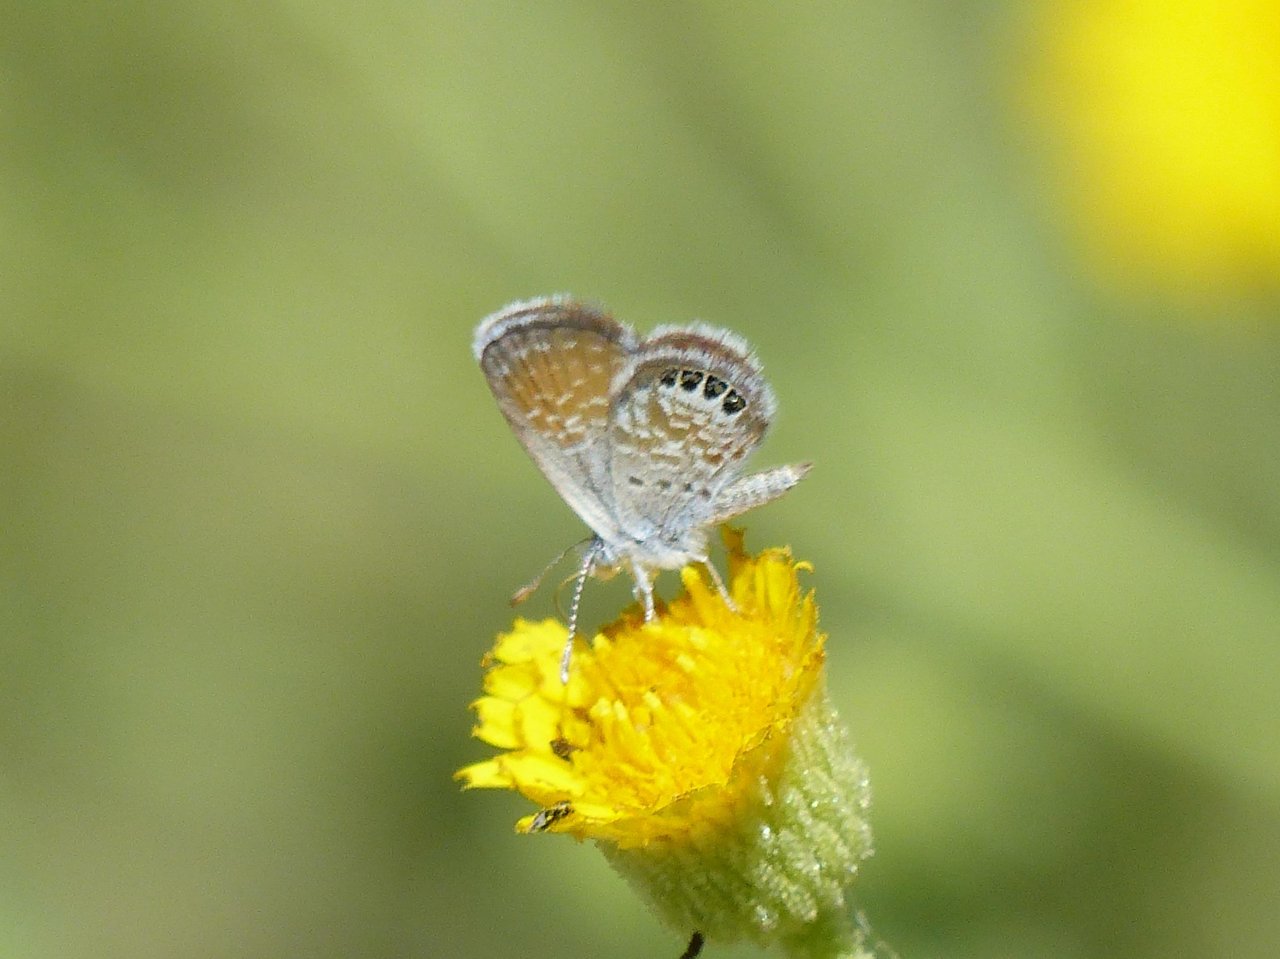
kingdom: Animalia
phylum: Arthropoda
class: Insecta
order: Lepidoptera
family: Lycaenidae
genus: Brephidium
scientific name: Brephidium exilis
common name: Western Pygmy-Blue
